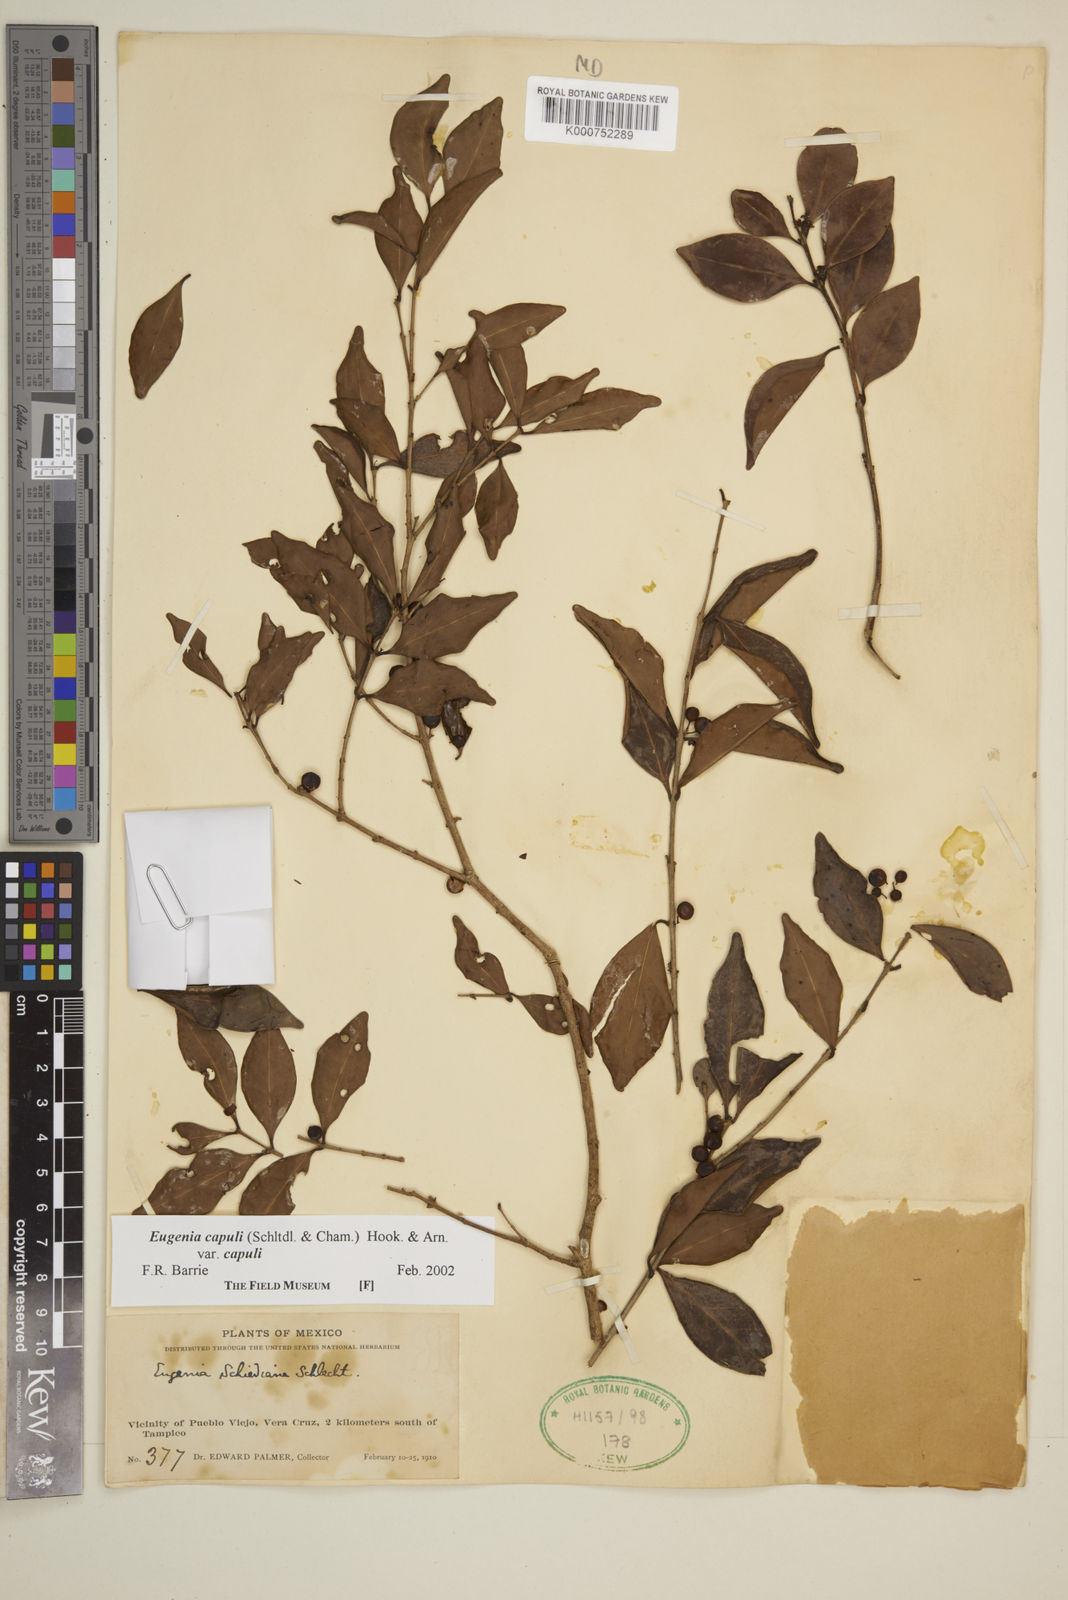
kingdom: Plantae
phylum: Tracheophyta
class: Magnoliopsida
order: Myrtales
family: Myrtaceae
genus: Eugenia
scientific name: Eugenia capuli
